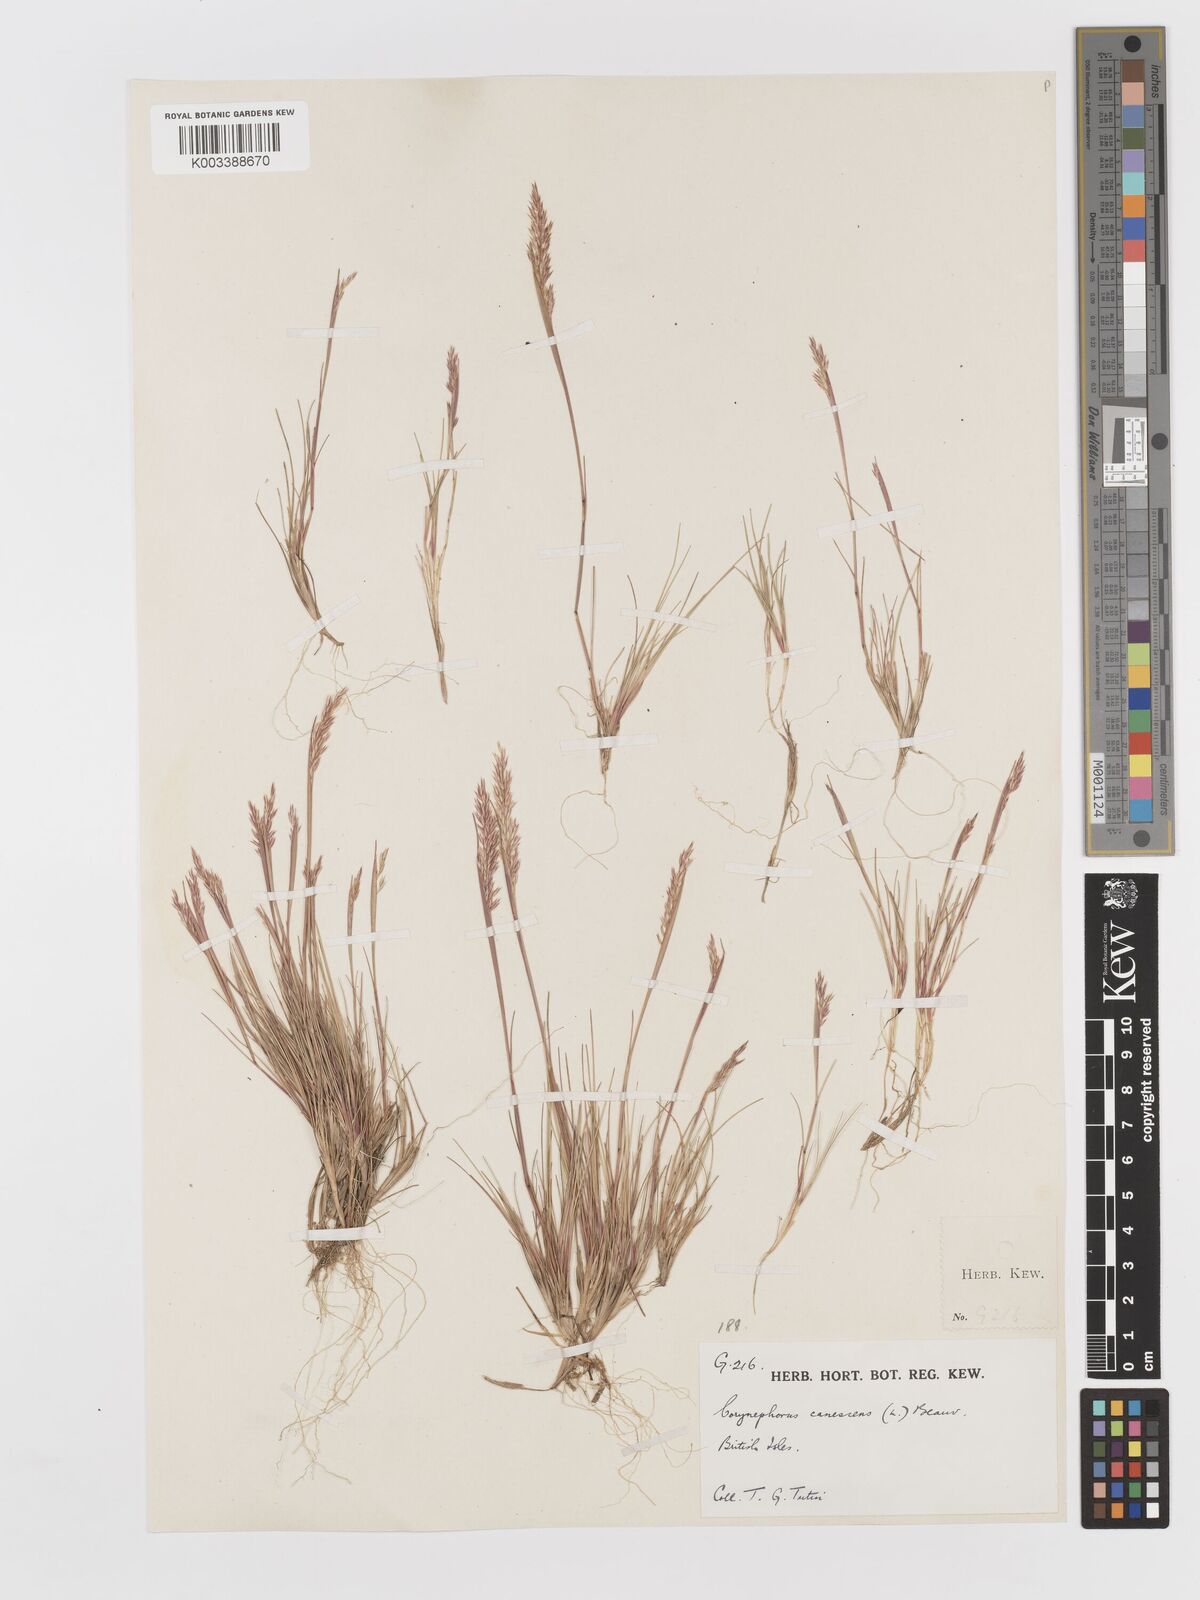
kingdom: Plantae
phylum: Tracheophyta
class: Liliopsida
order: Poales
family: Poaceae
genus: Corynephorus
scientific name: Corynephorus canescens
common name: Grey hair-grass
